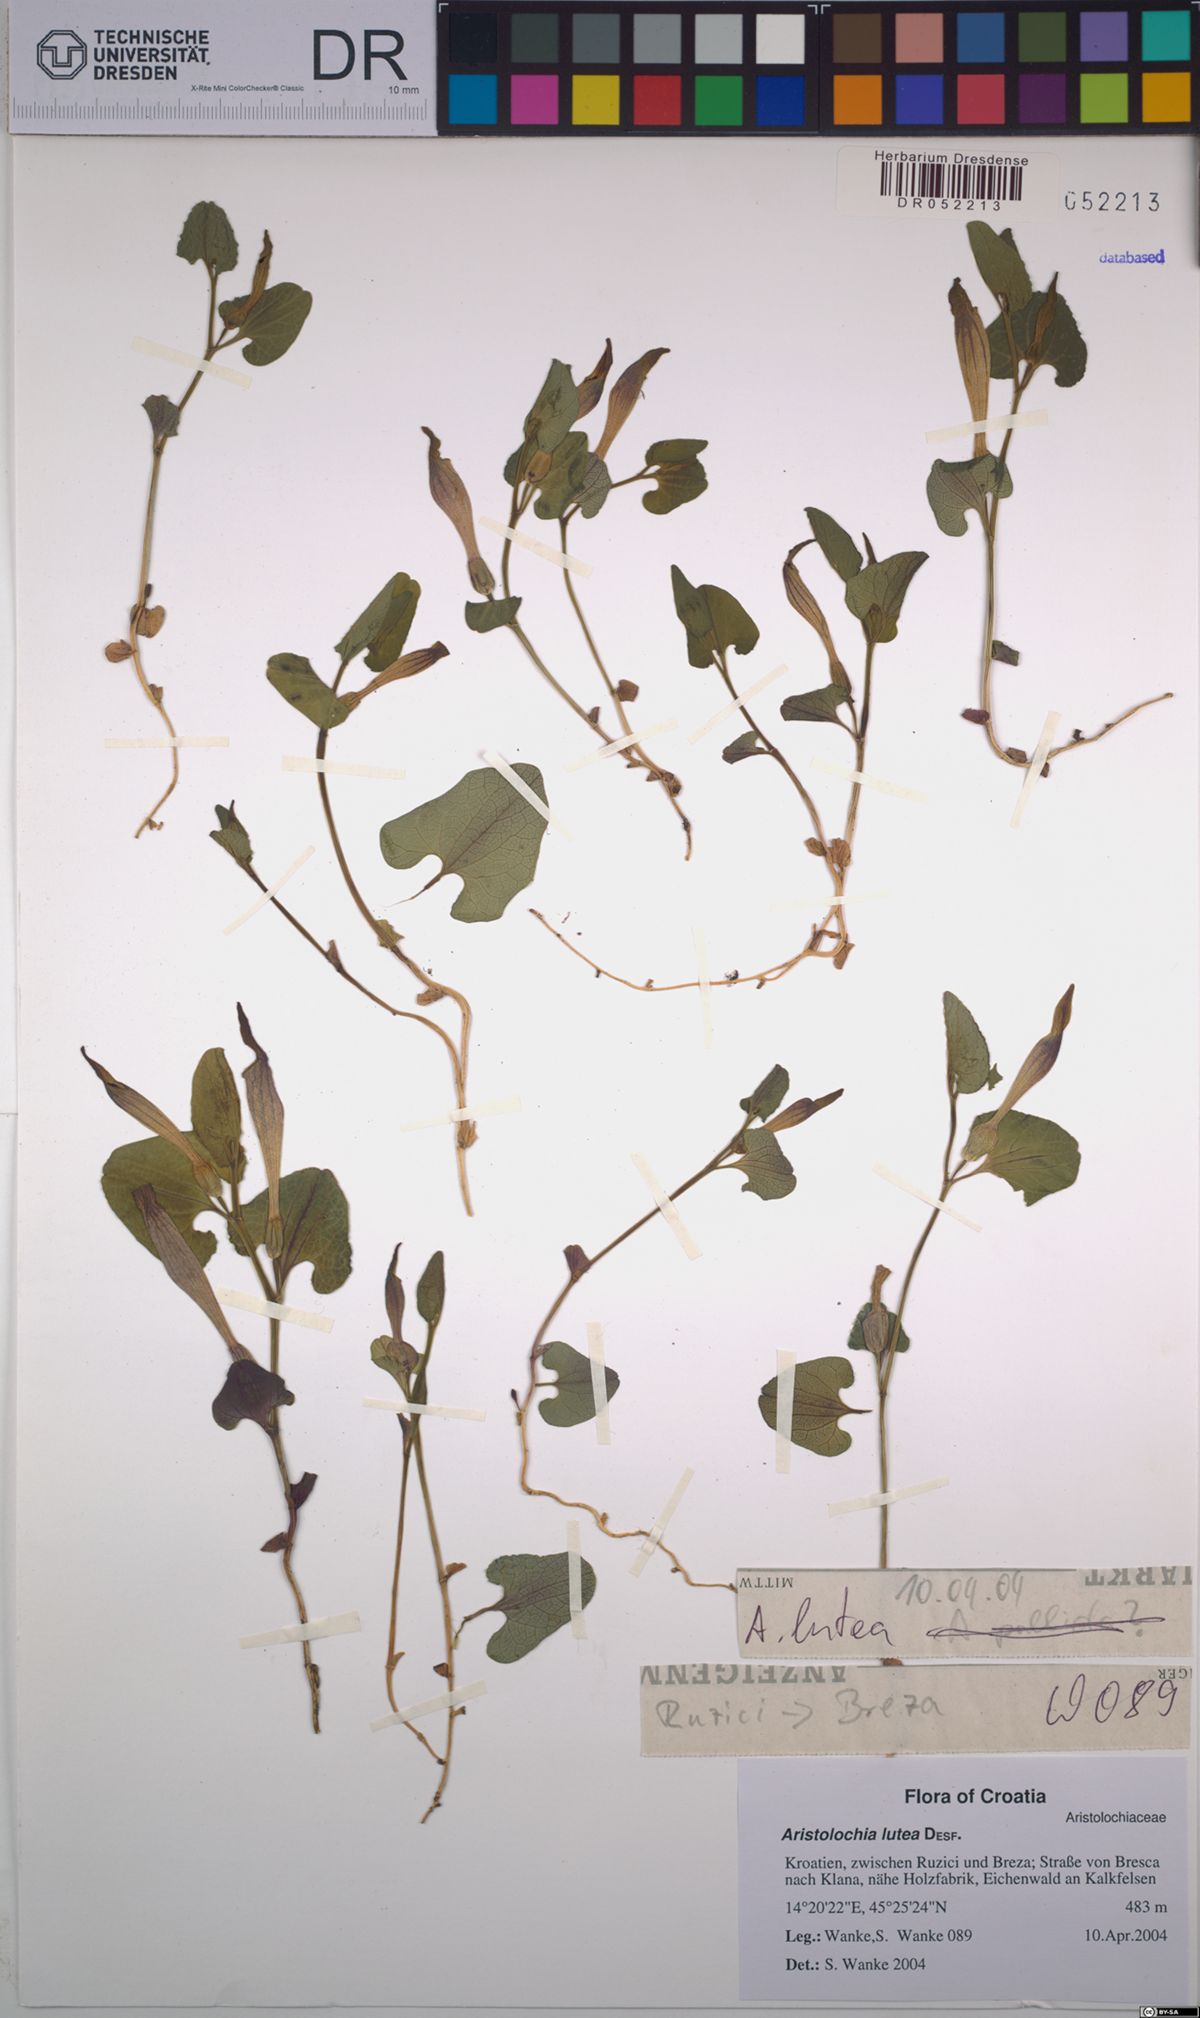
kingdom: Plantae
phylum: Tracheophyta
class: Magnoliopsida
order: Piperales
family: Aristolochiaceae
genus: Aristolochia
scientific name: Aristolochia lutea
